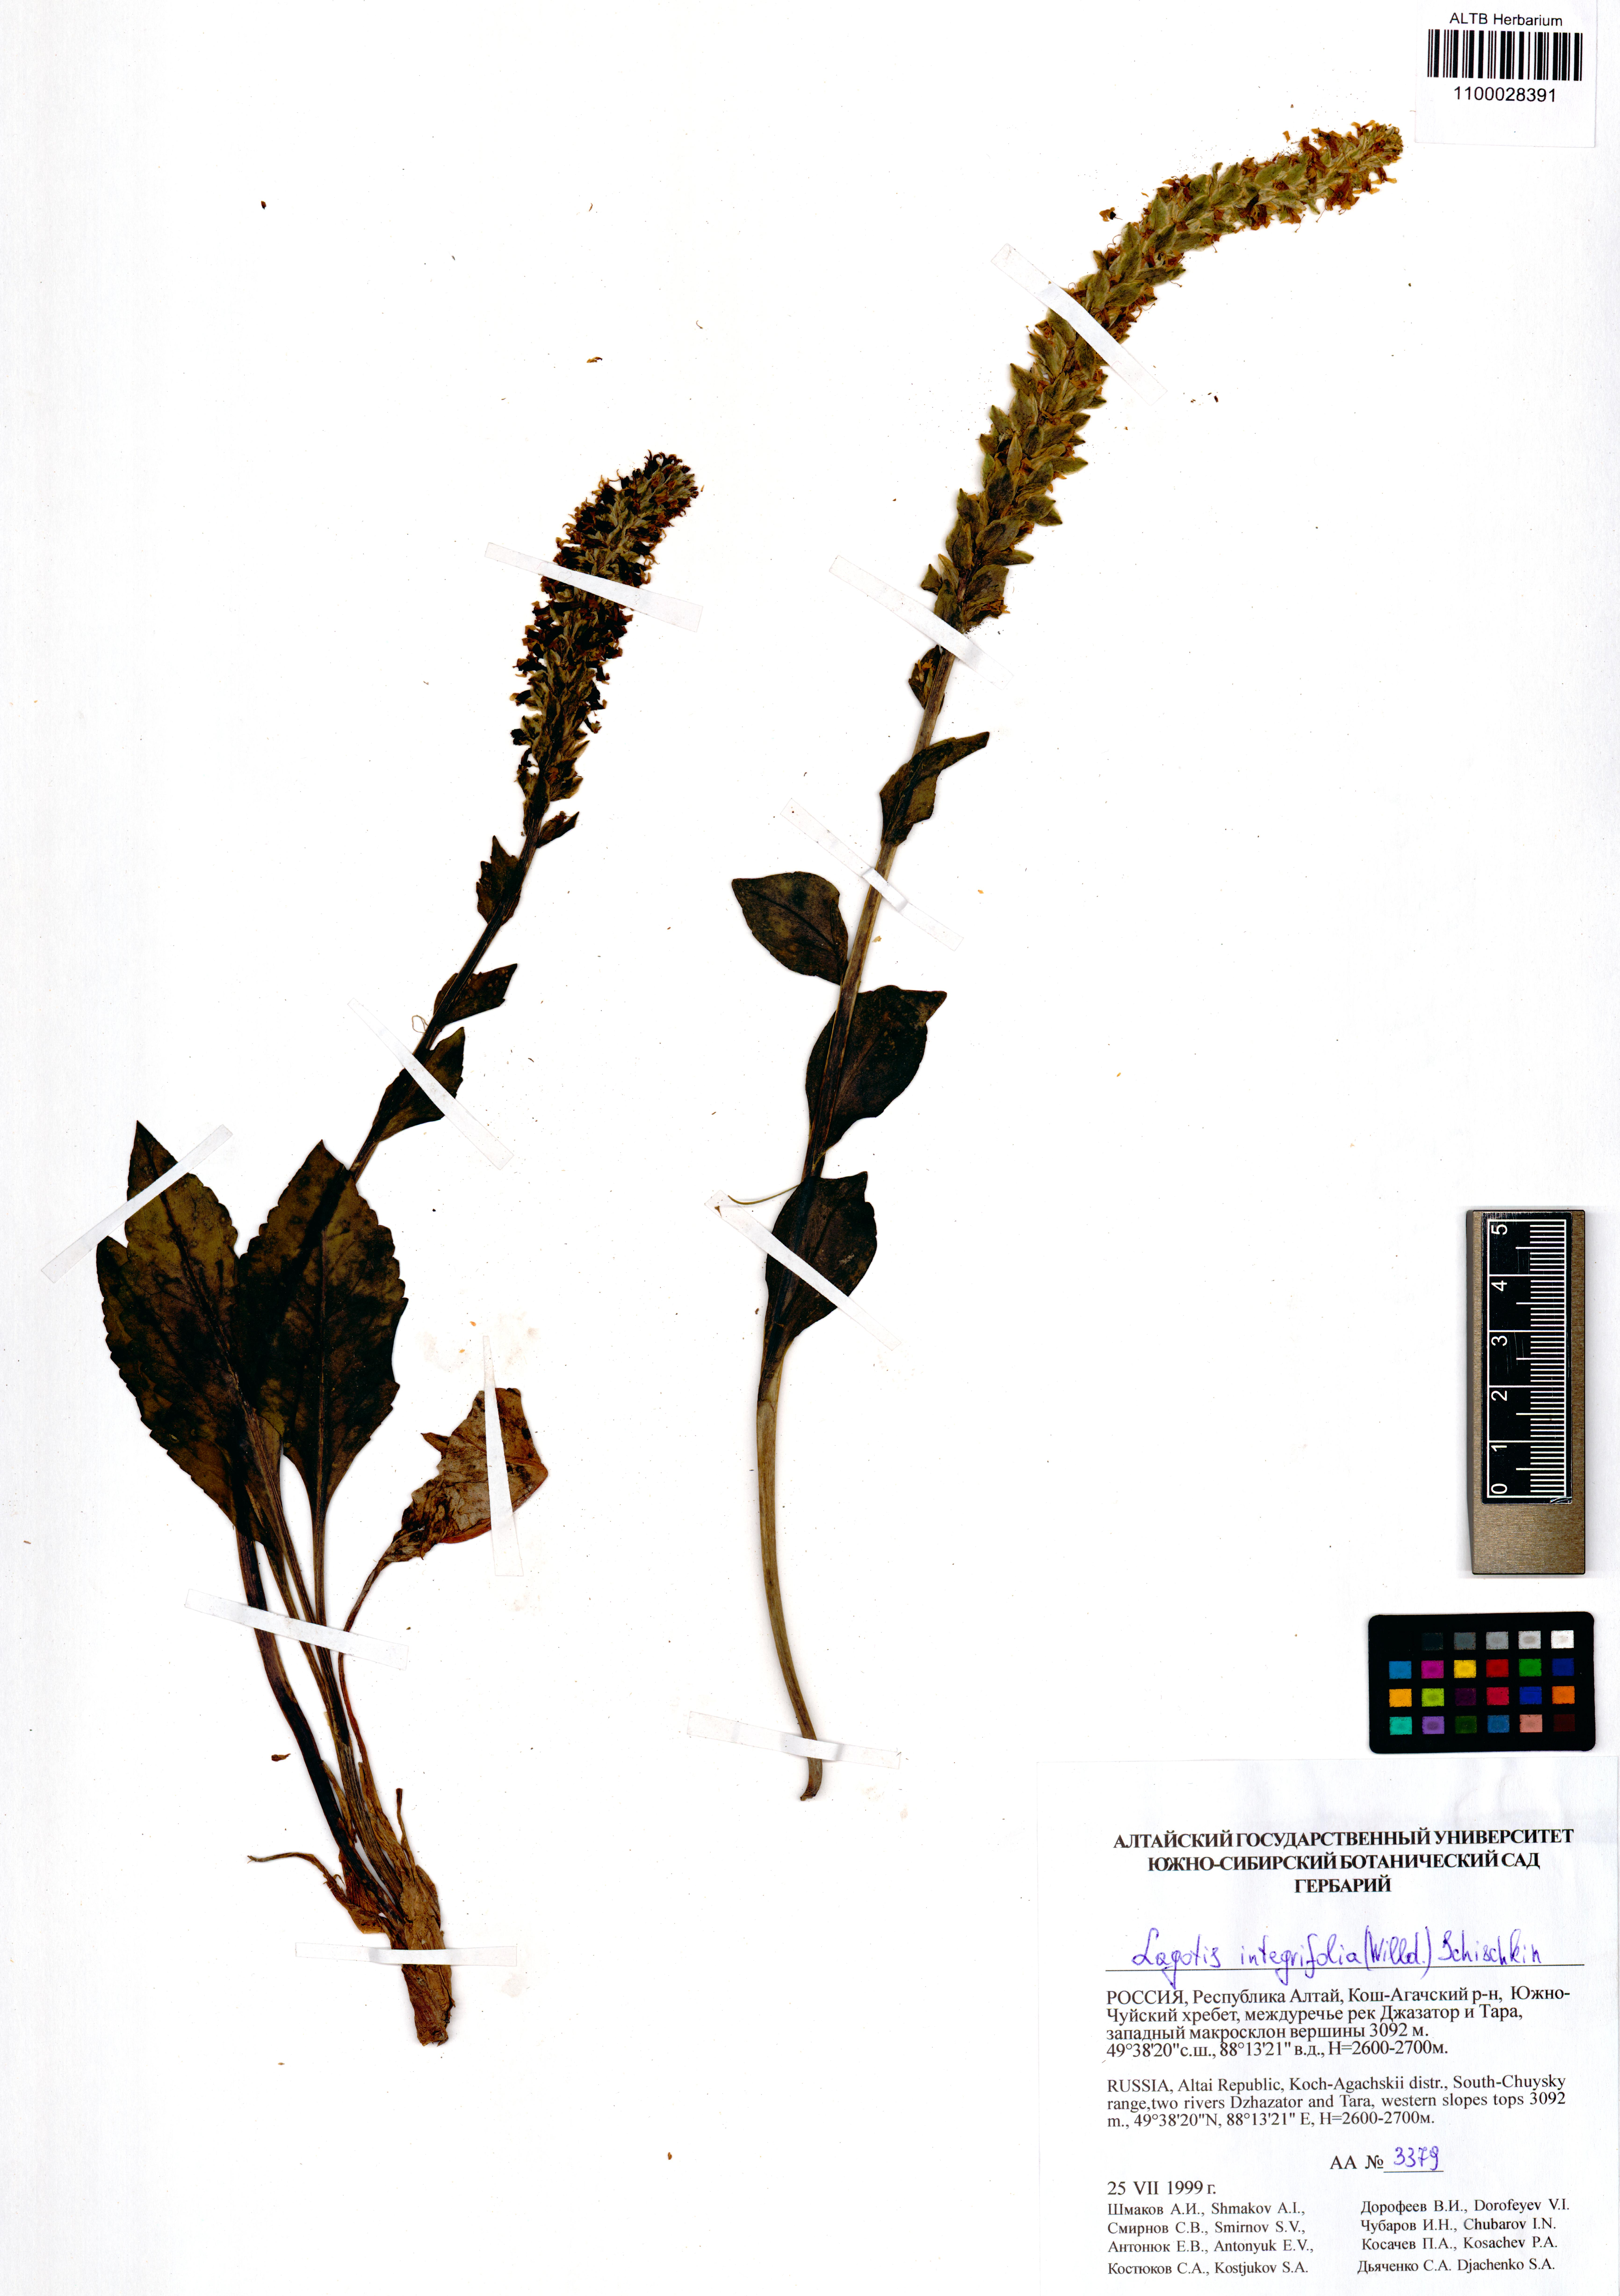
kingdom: Plantae
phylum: Tracheophyta
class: Magnoliopsida
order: Lamiales
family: Plantaginaceae
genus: Lagotis
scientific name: Lagotis integrifolia
